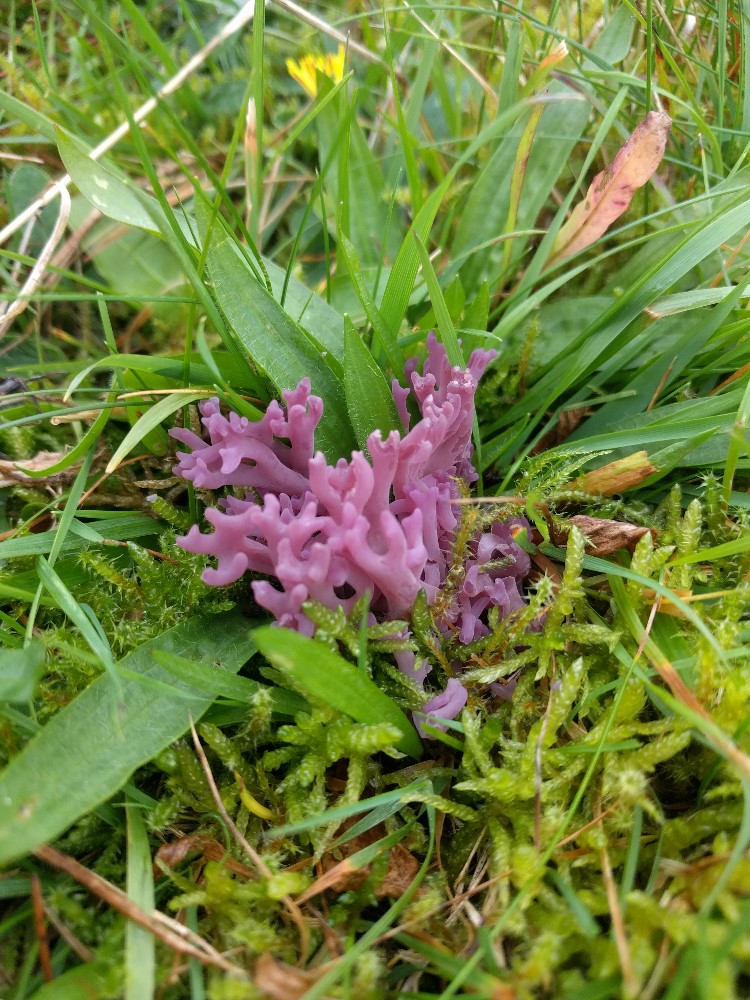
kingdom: Fungi
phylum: Basidiomycota
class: Agaricomycetes
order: Agaricales
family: Clavariaceae
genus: Clavaria
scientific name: Clavaria zollingeri
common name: purpur-køllesvamp
